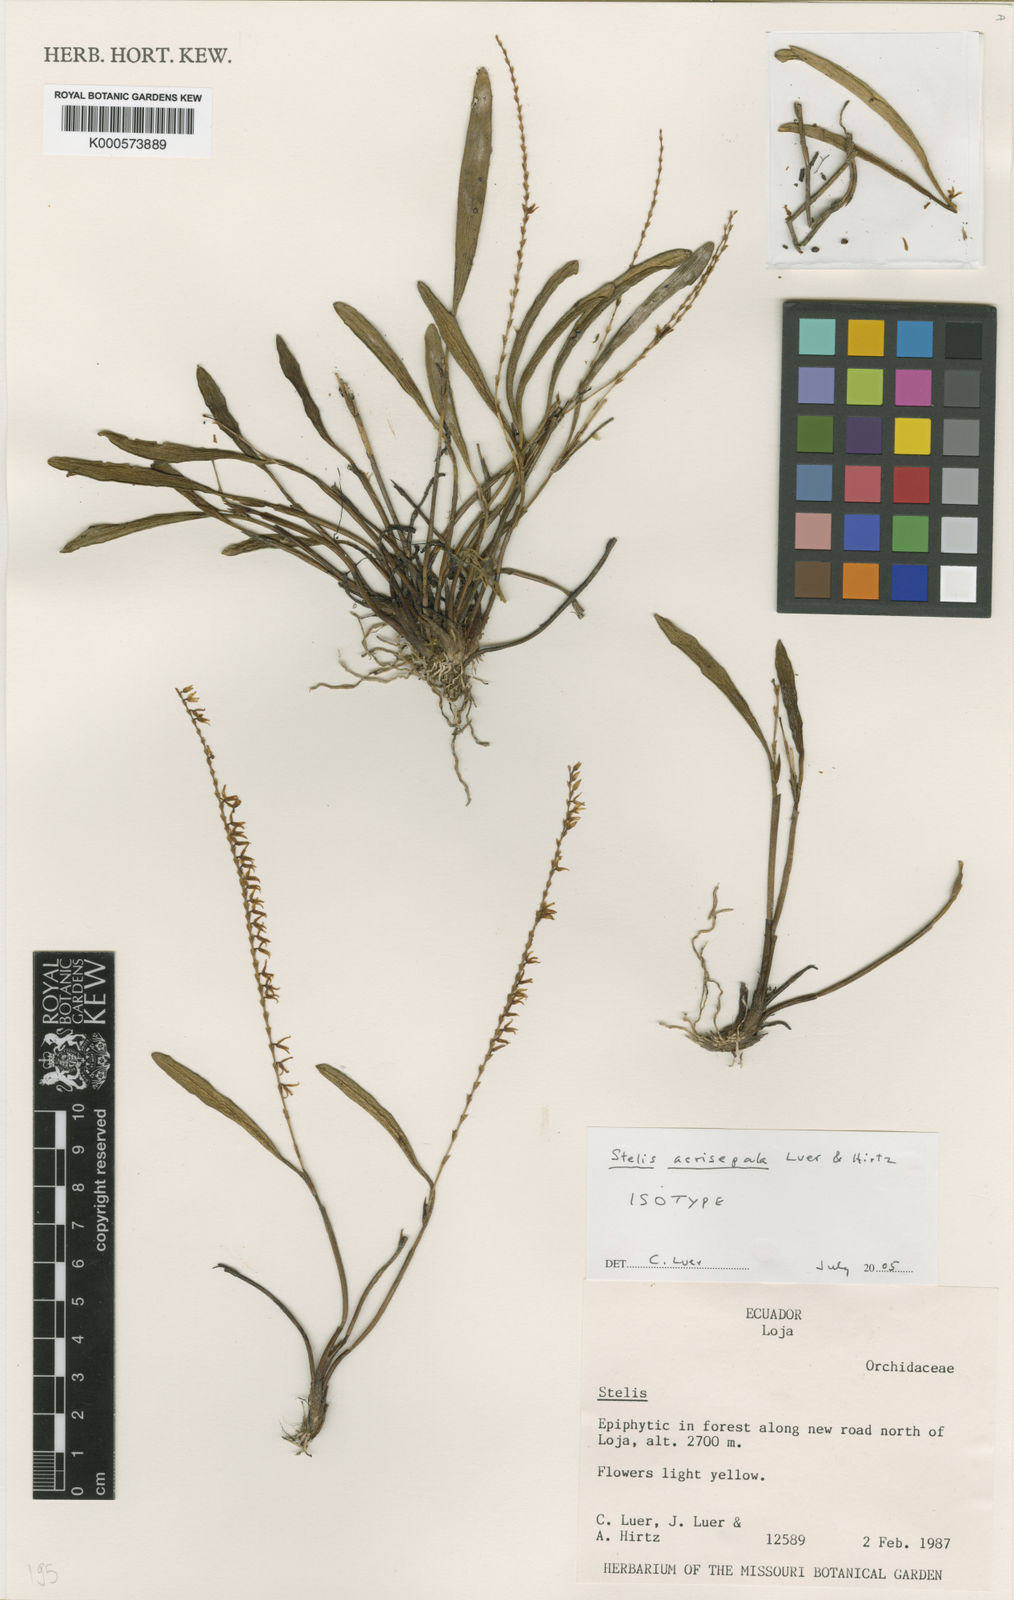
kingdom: Plantae
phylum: Tracheophyta
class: Liliopsida
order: Asparagales
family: Orchidaceae
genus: Stelis
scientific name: Stelis acrisepala
